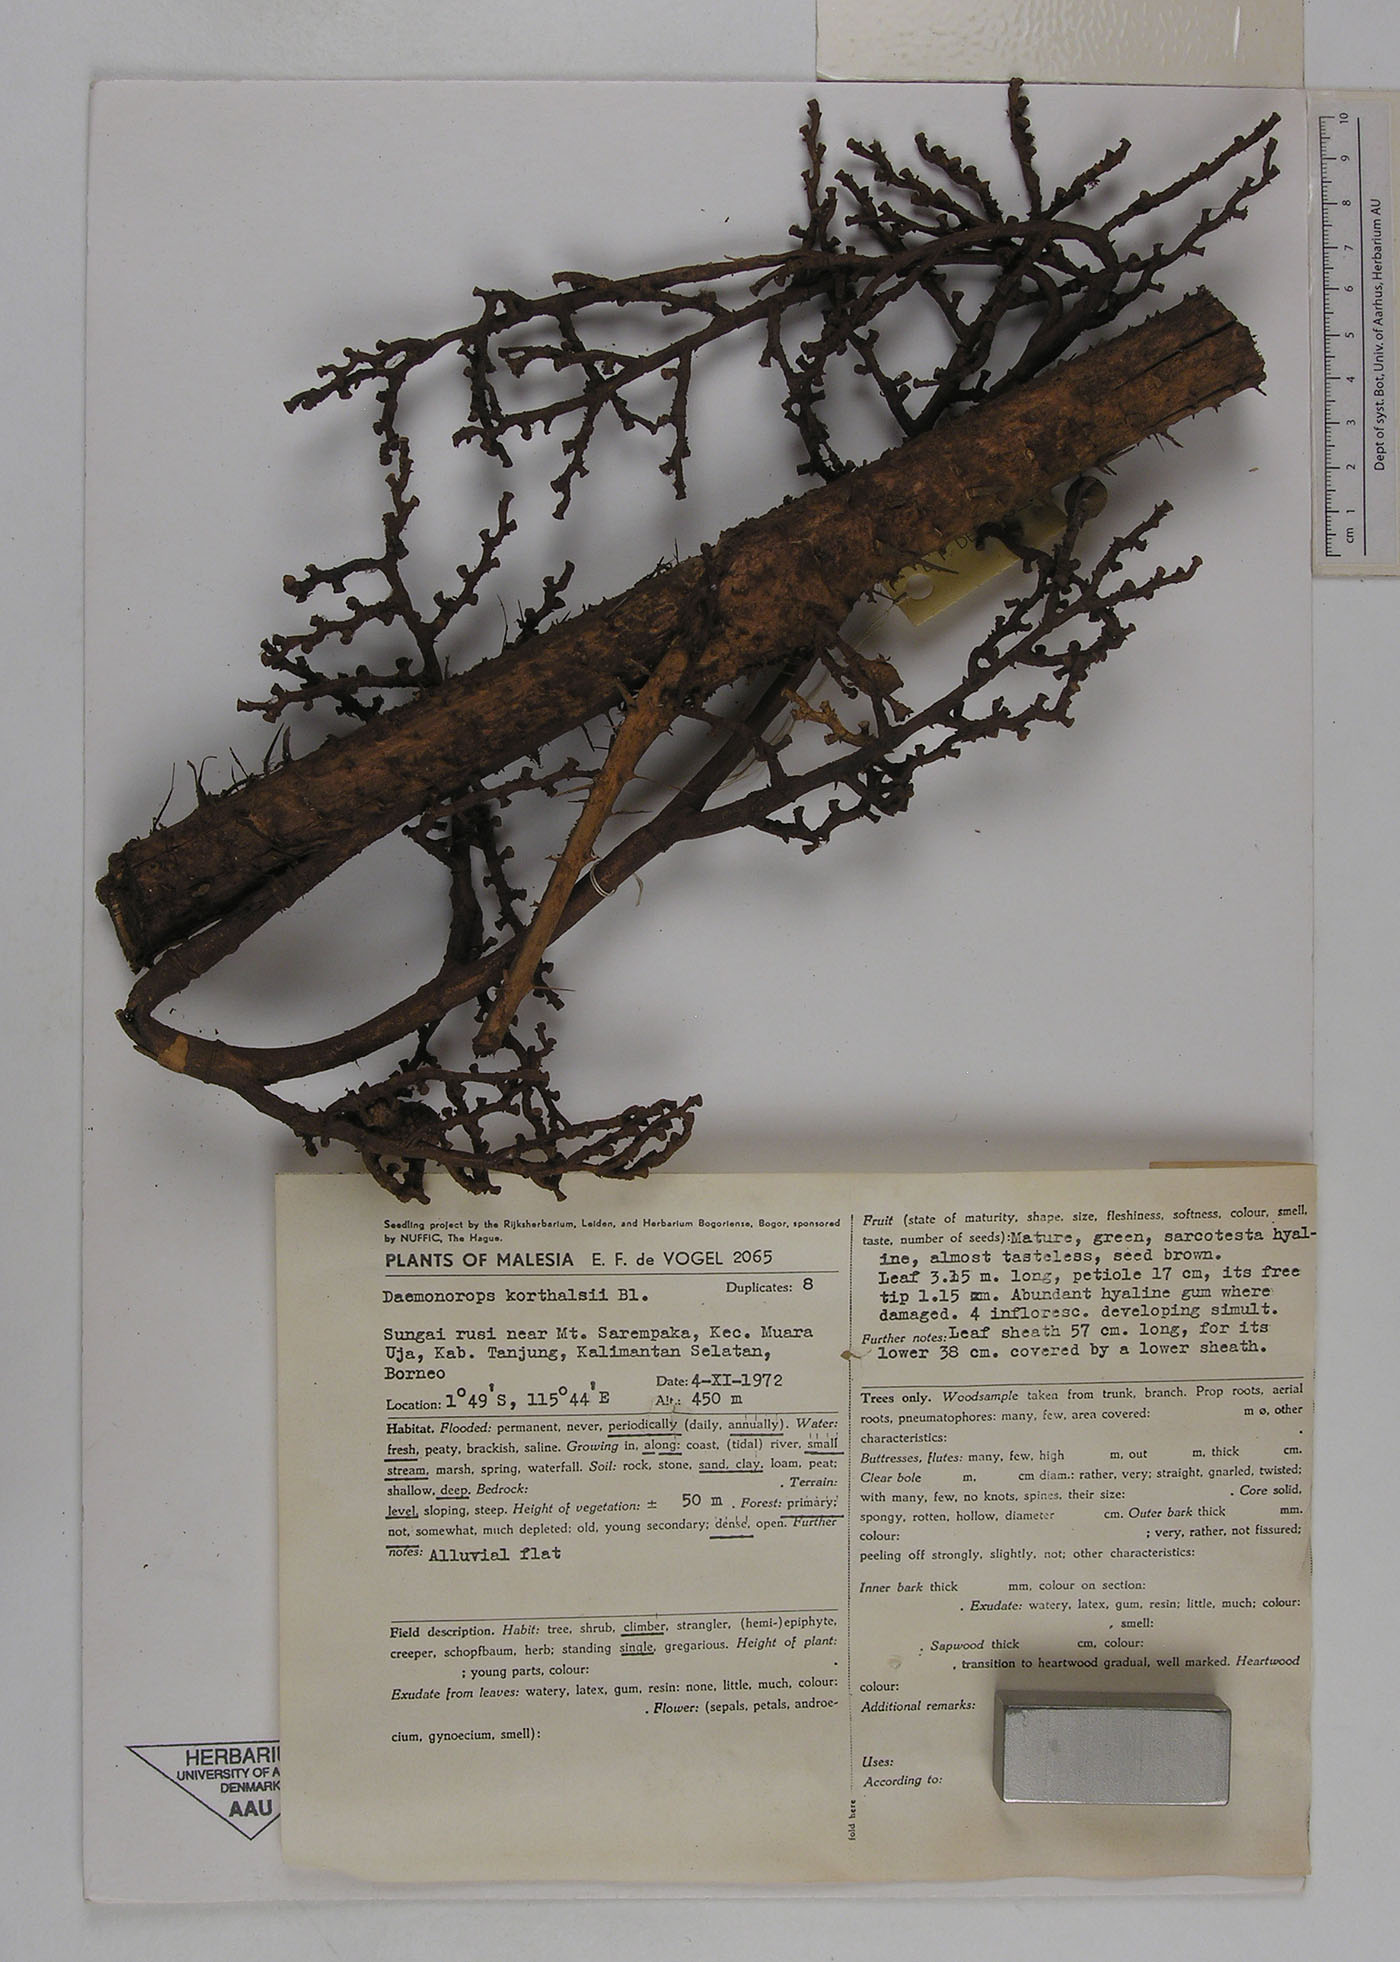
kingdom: Plantae
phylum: Tracheophyta
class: Liliopsida
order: Arecales
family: Arecaceae
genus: Calamus
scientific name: Calamus hirsutus
